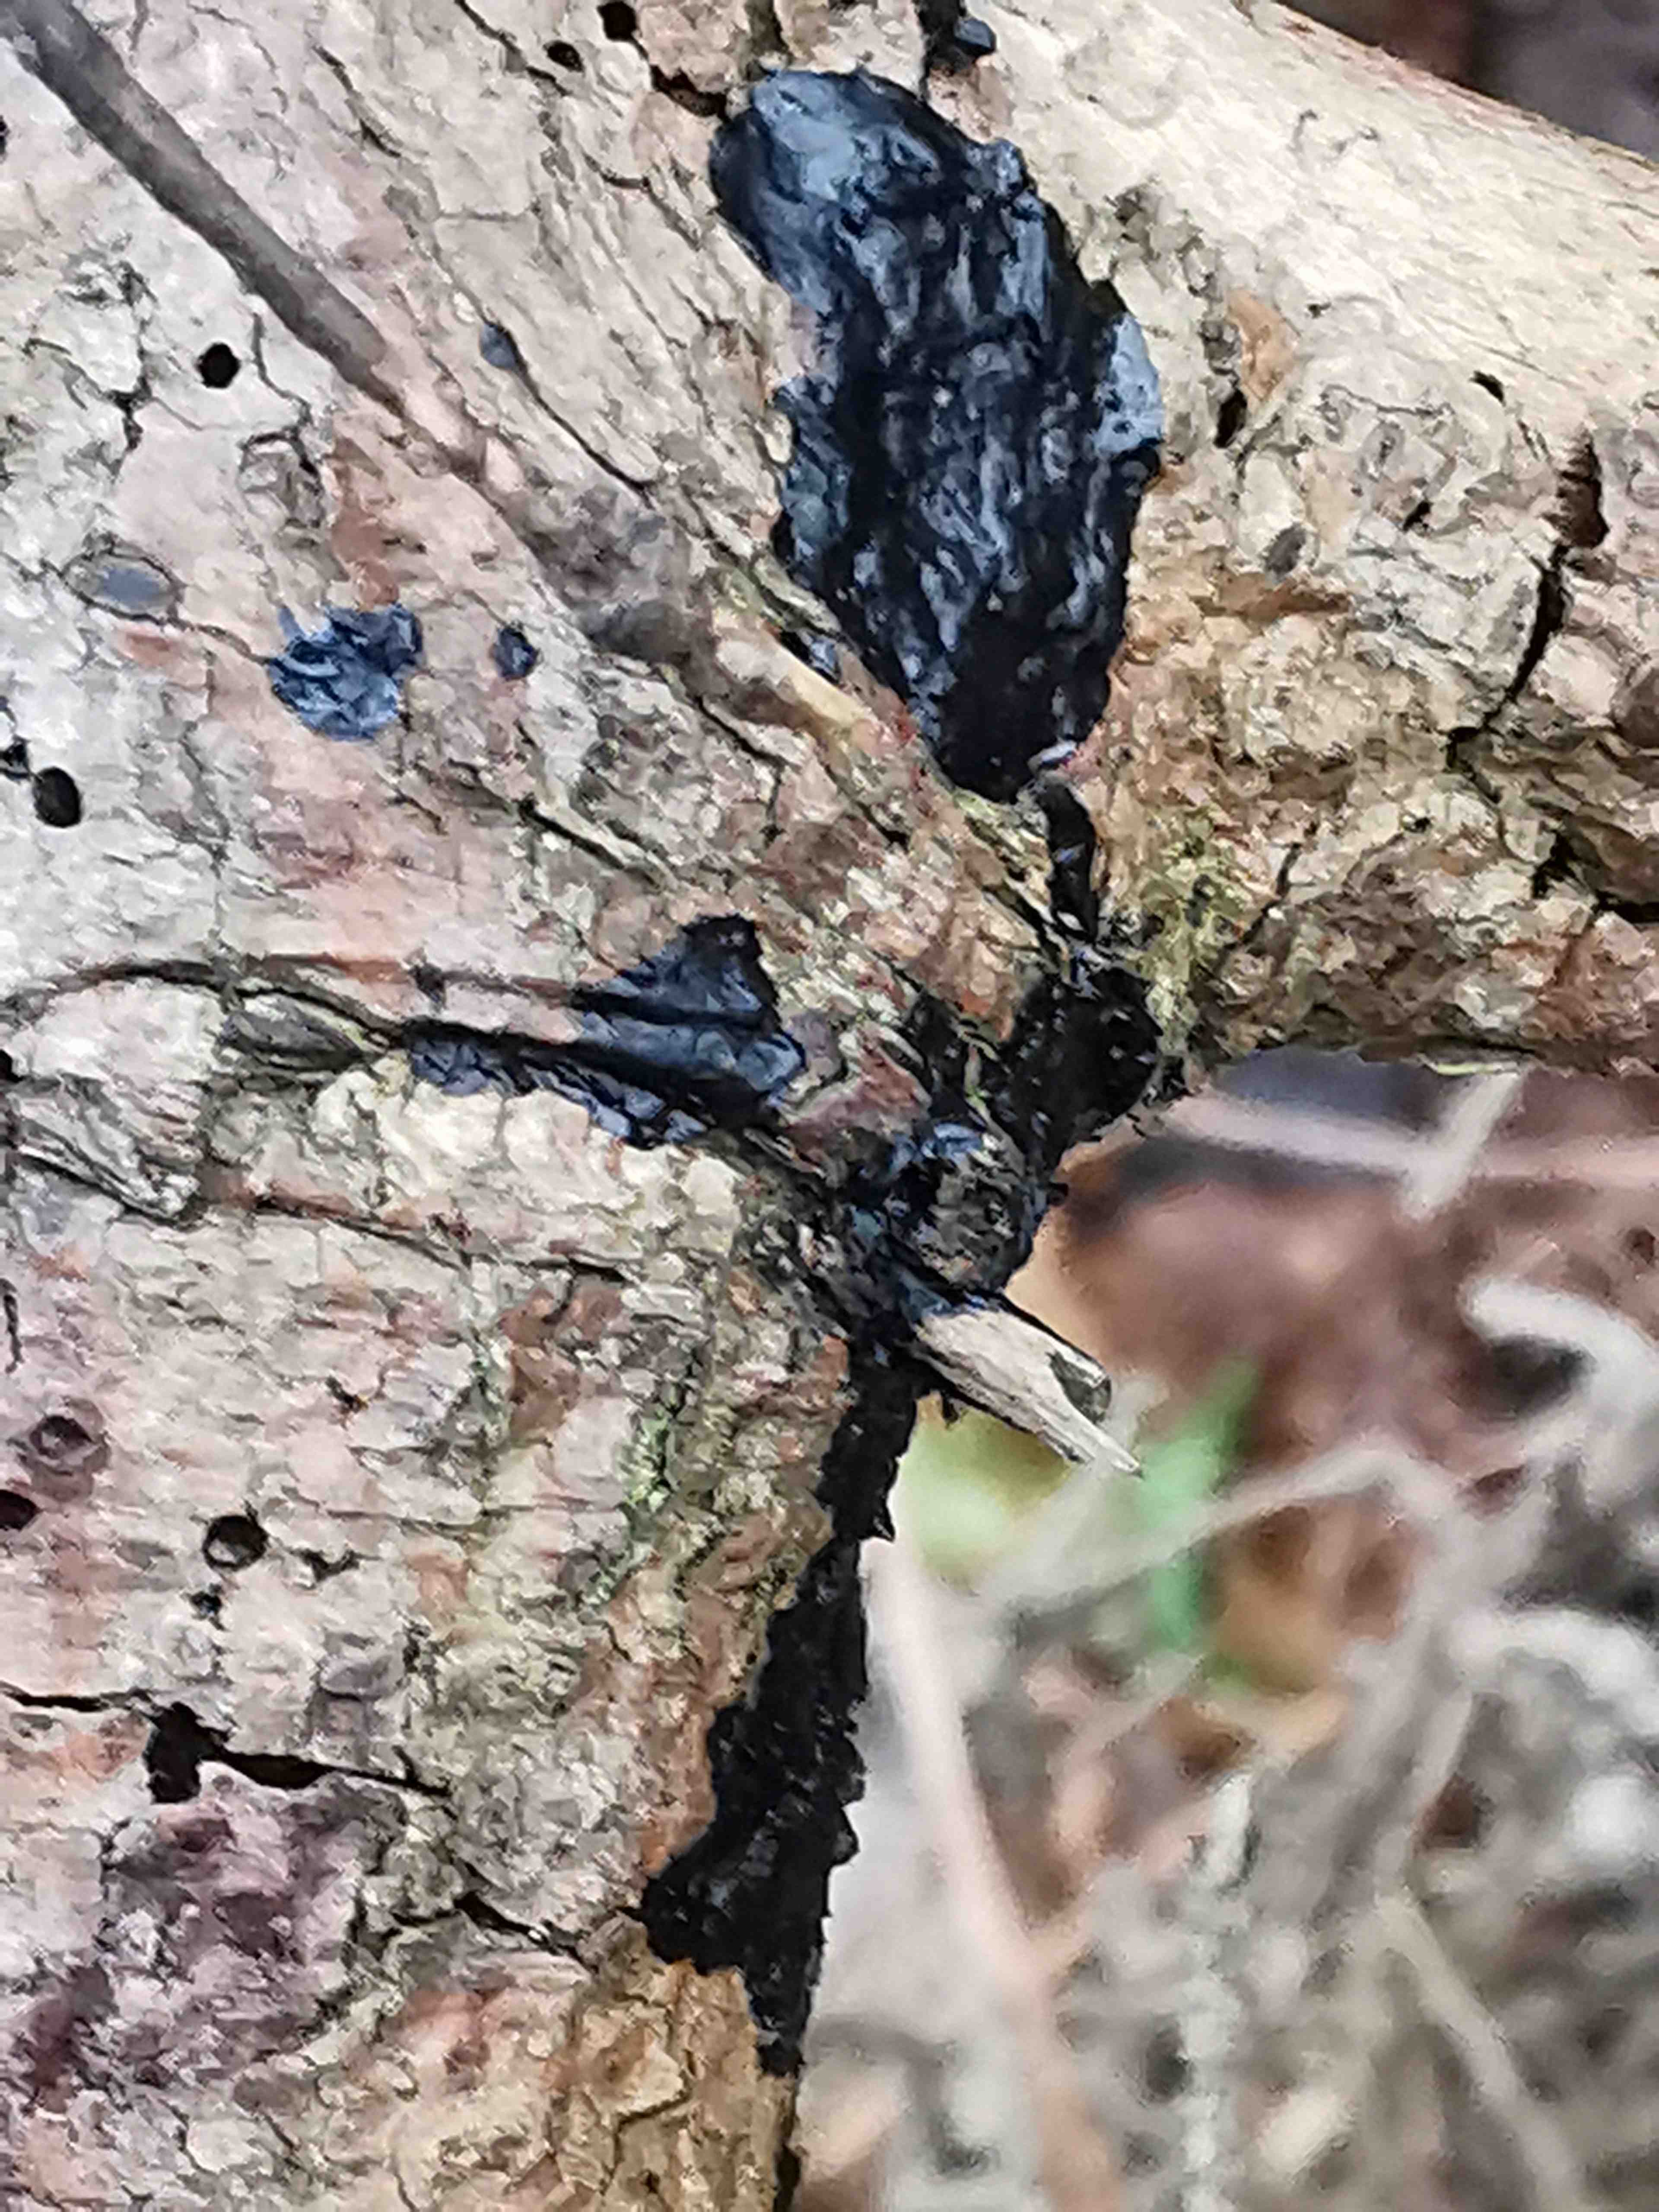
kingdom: Fungi
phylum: Basidiomycota
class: Agaricomycetes
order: Auriculariales
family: Auriculariaceae
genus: Exidia
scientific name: Exidia pithya
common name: gran-bævretop
